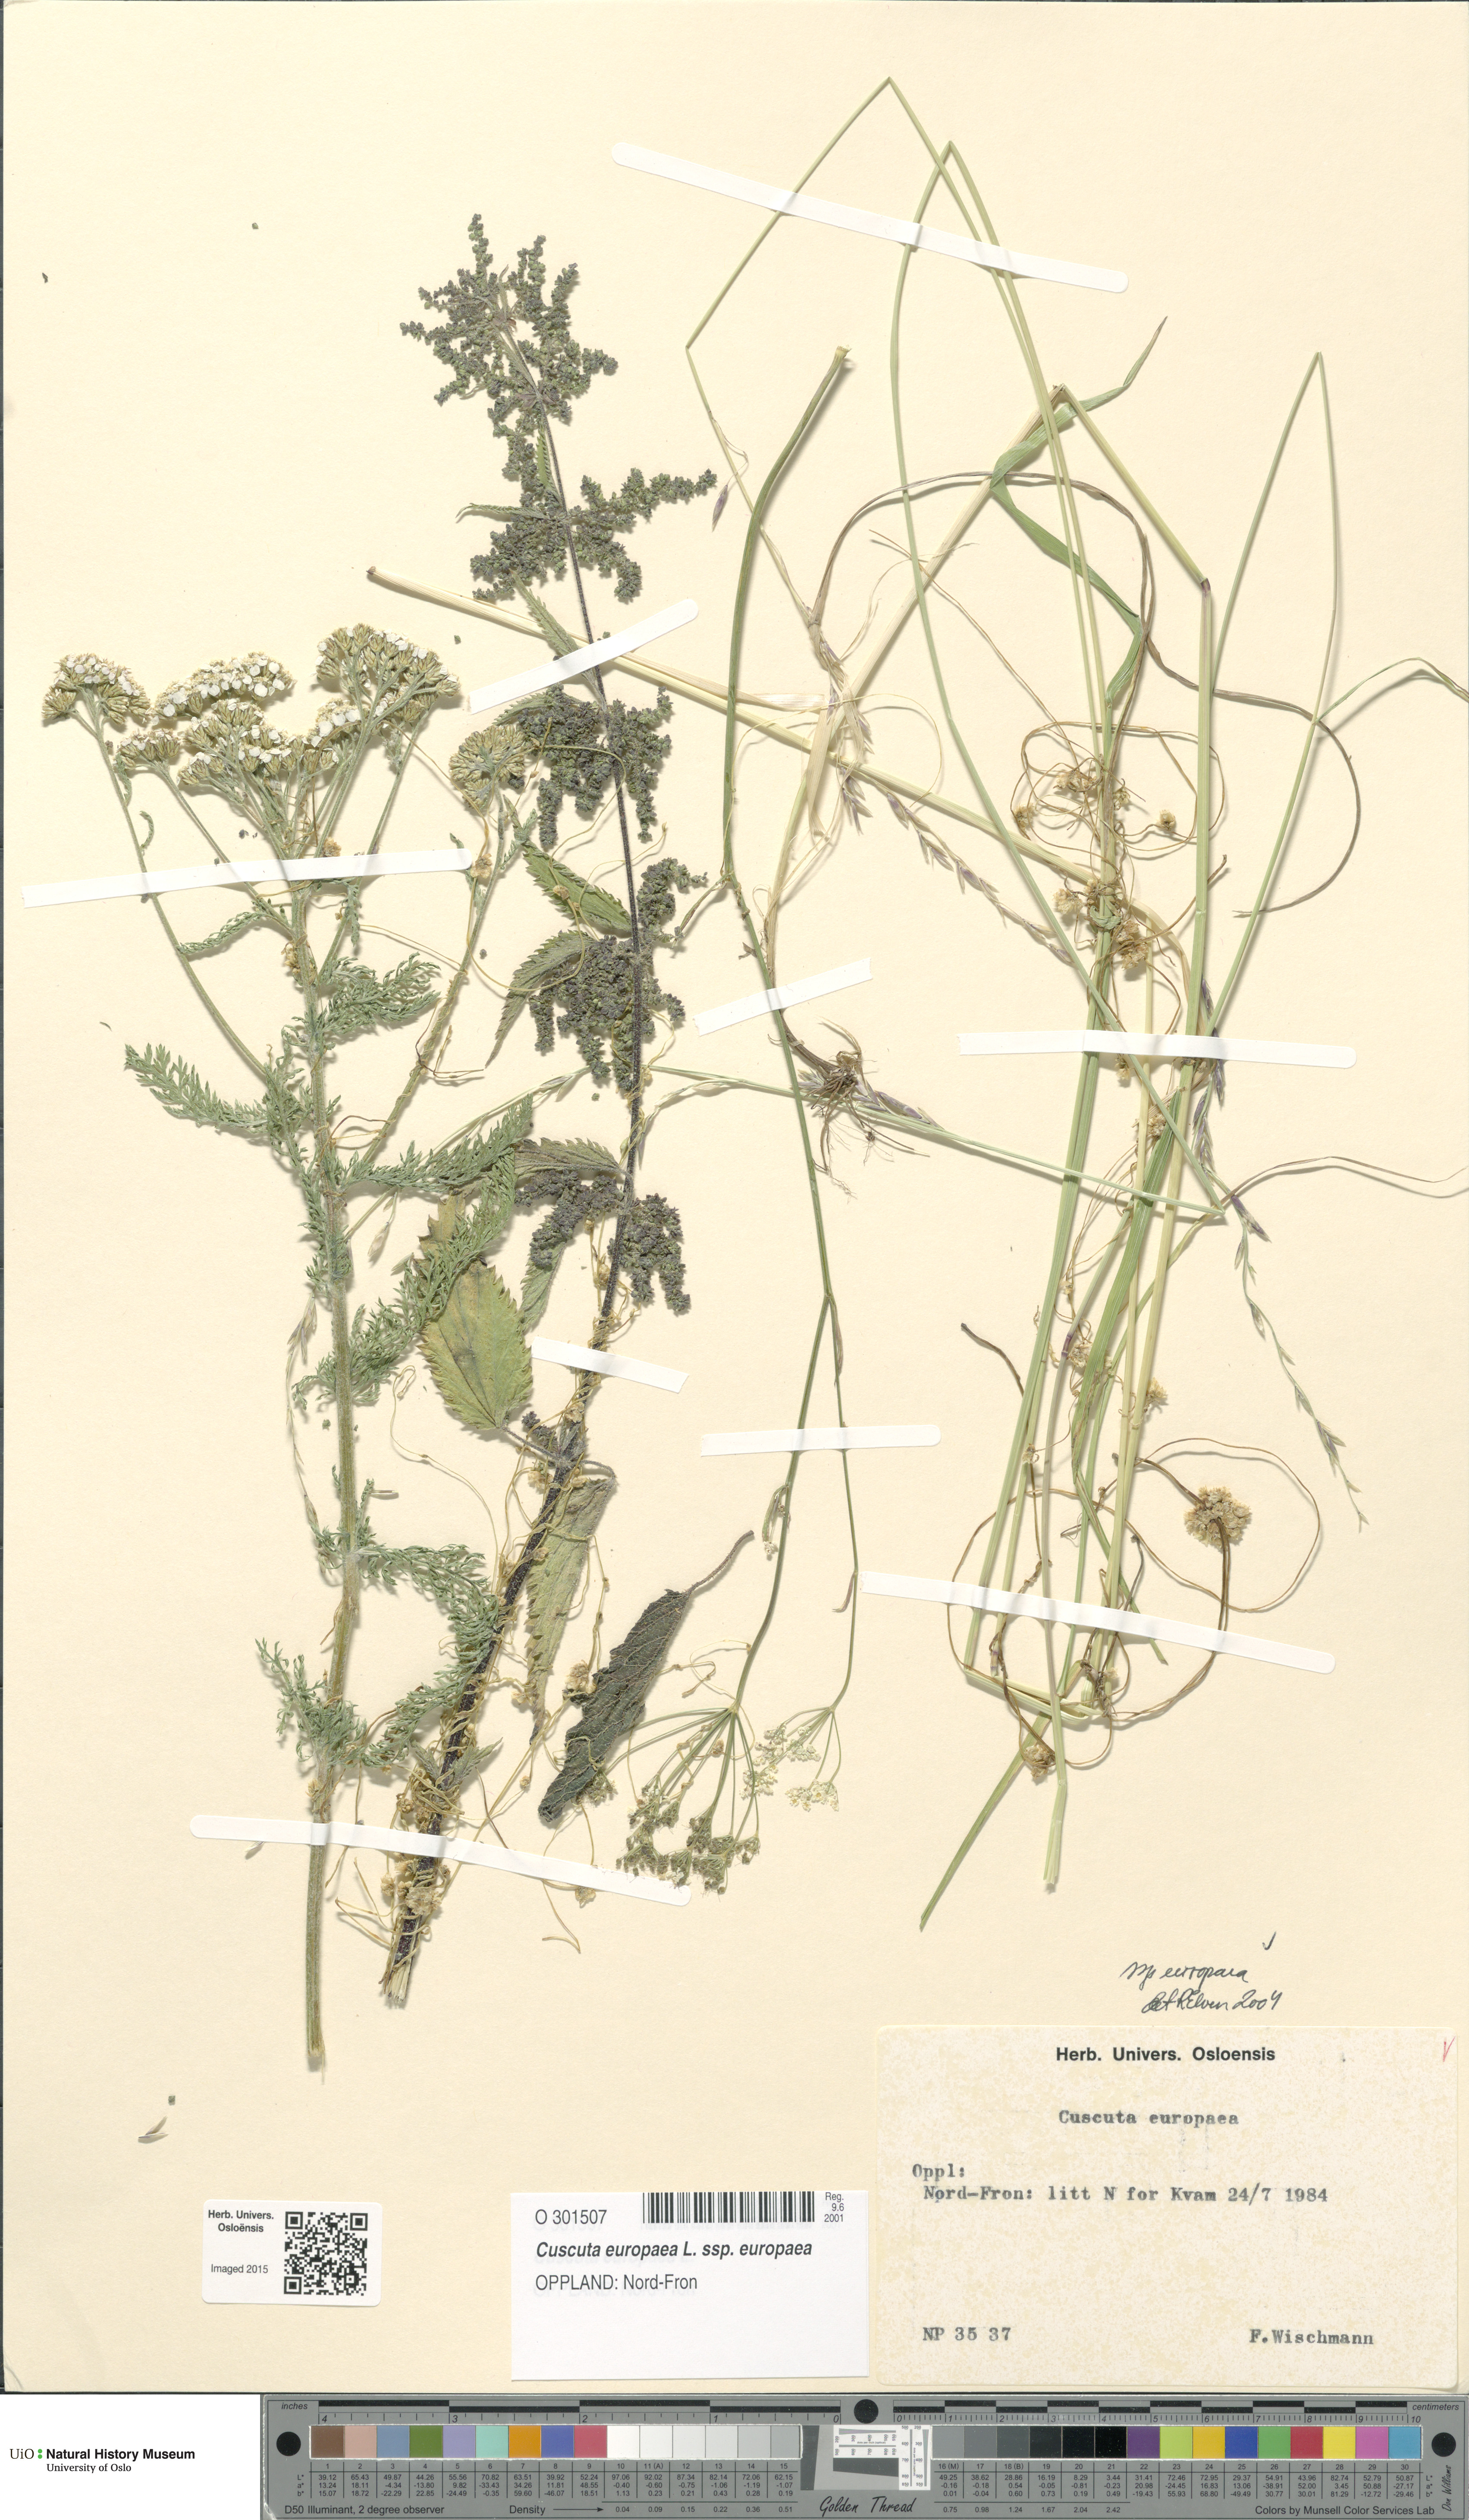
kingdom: Plantae
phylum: Tracheophyta
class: Magnoliopsida
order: Solanales
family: Convolvulaceae
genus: Cuscuta
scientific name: Cuscuta europaea
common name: Greater dodder
